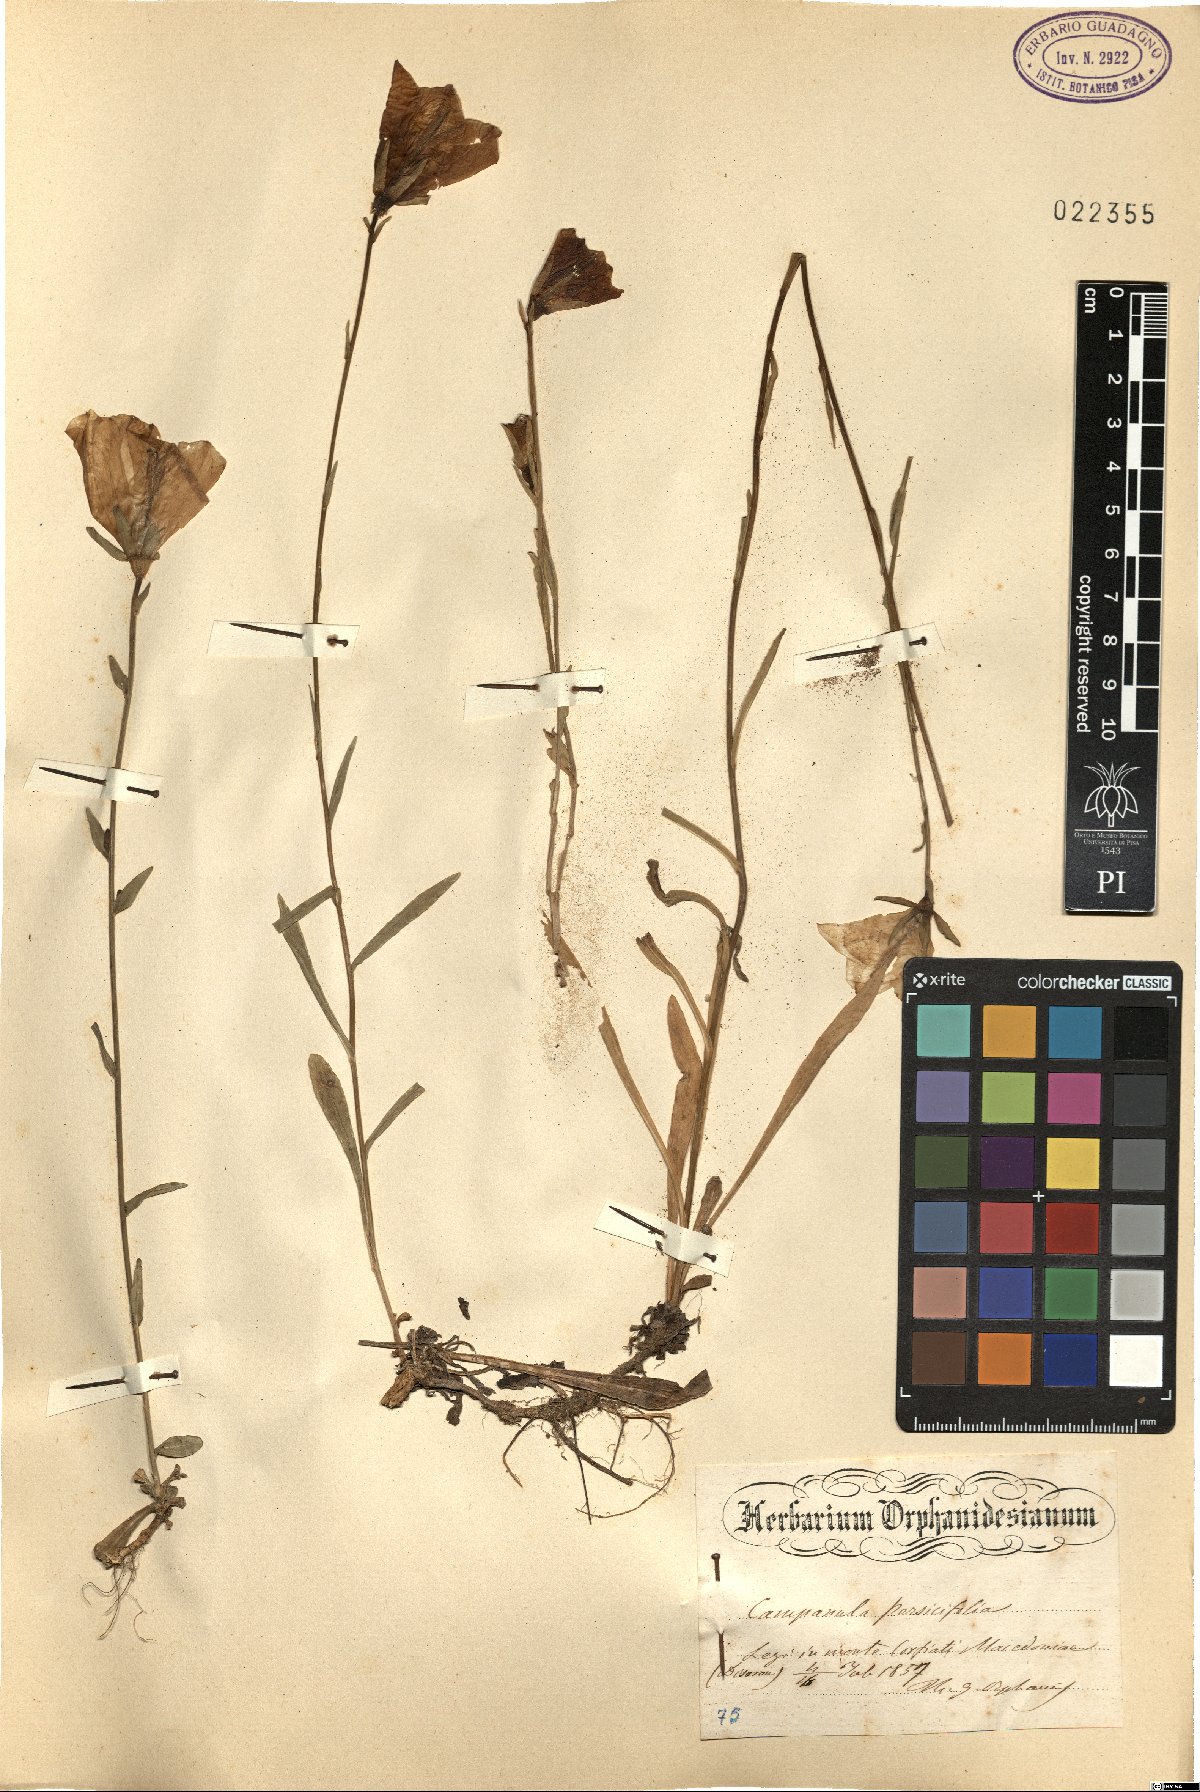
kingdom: Plantae
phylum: Tracheophyta
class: Magnoliopsida
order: Asterales
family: Campanulaceae
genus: Campanula
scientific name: Campanula persicifolia
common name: Peach-leaved bellflower
